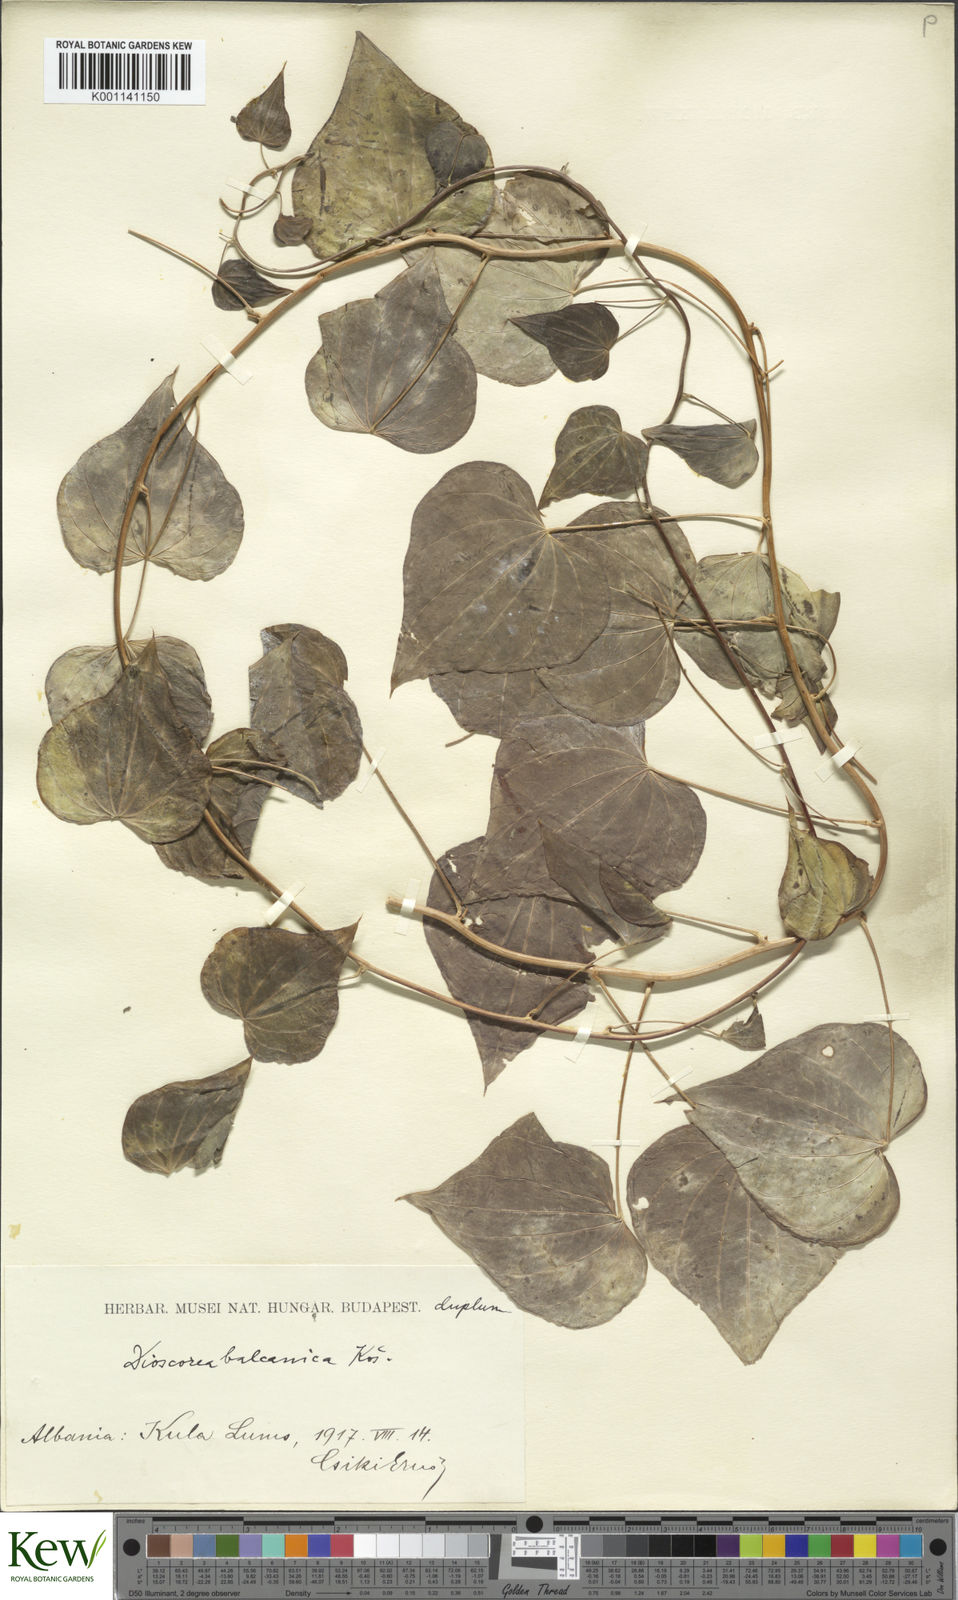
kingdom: Plantae
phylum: Tracheophyta
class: Liliopsida
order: Dioscoreales
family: Dioscoreaceae
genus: Dioscorea
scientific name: Dioscorea
